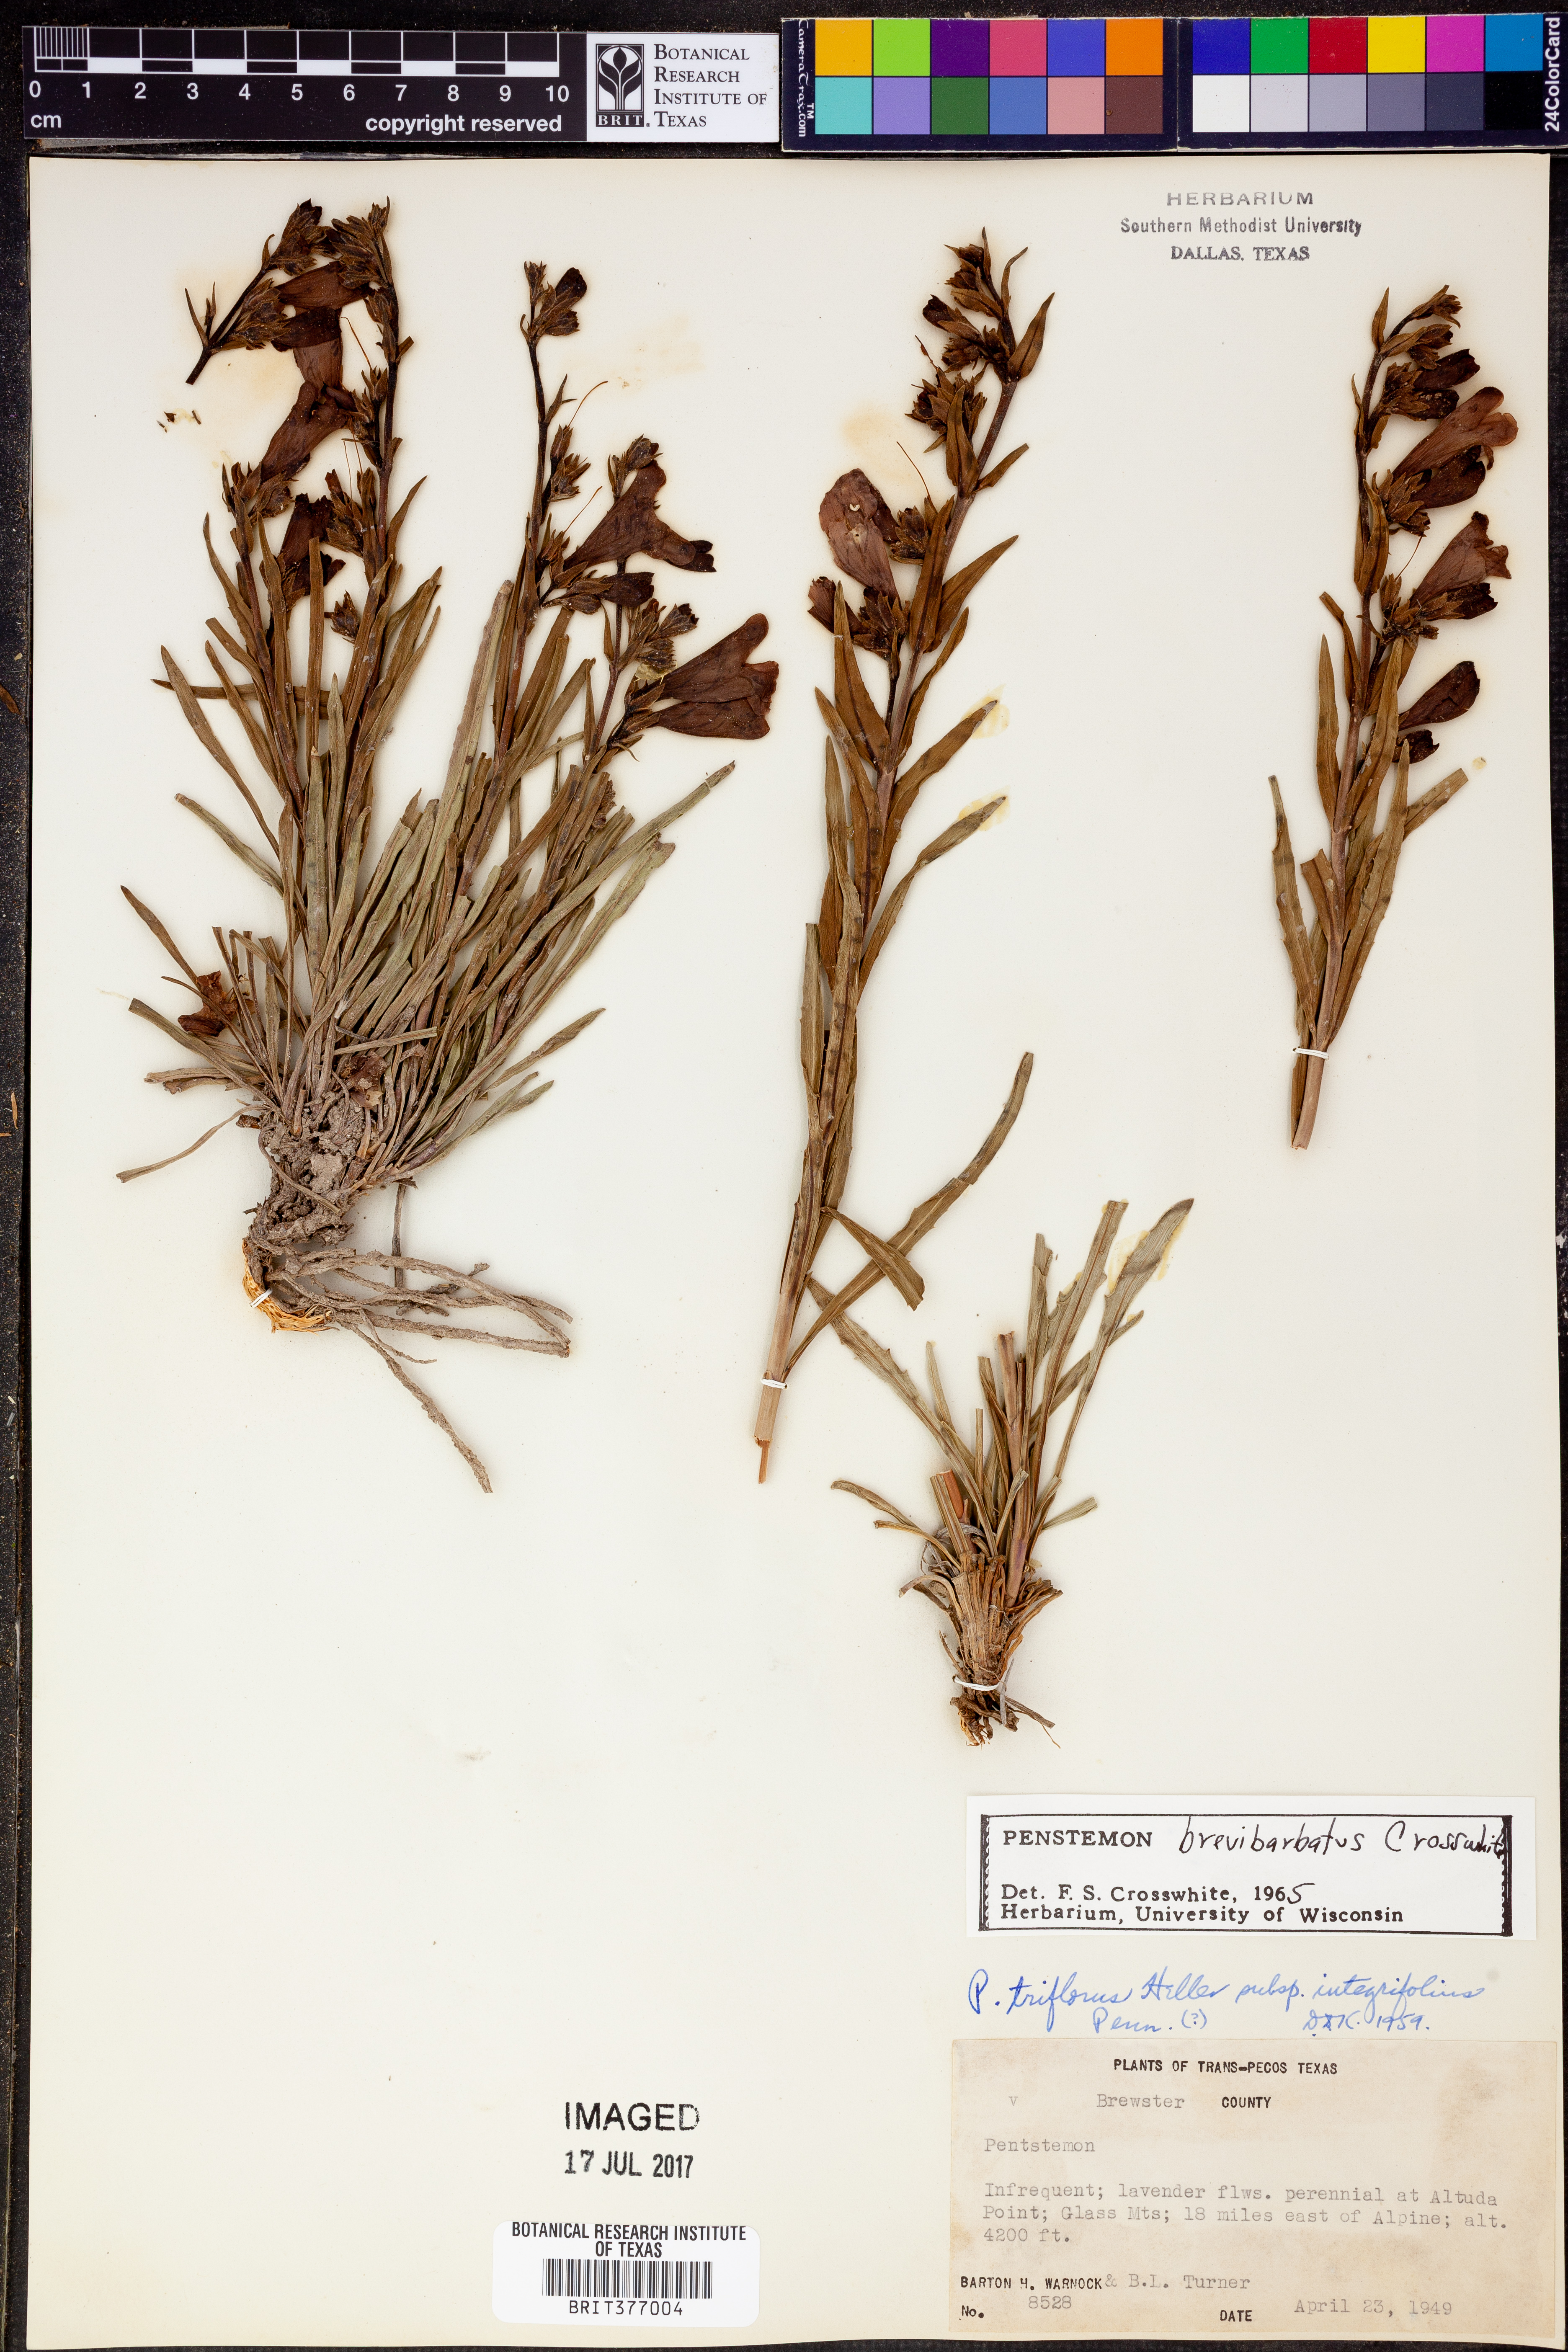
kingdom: Plantae
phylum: Tracheophyta
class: Magnoliopsida
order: Lamiales
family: Plantaginaceae
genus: Penstemon
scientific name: Penstemon brevibarbatus
